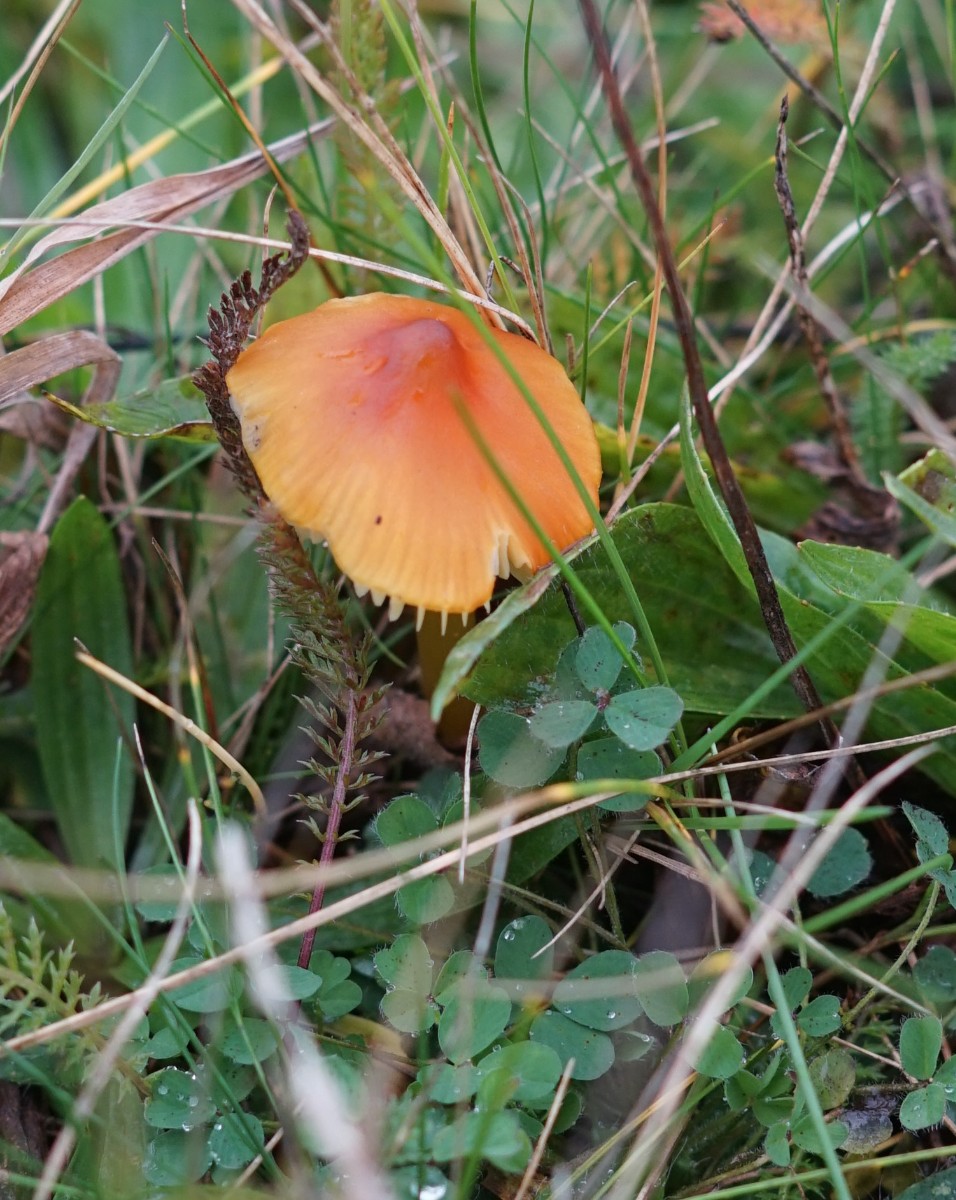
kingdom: Fungi
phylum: Basidiomycota
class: Agaricomycetes
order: Agaricales
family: Hygrophoraceae
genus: Hygrocybe
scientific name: Hygrocybe conica
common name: kegle-vokshat
